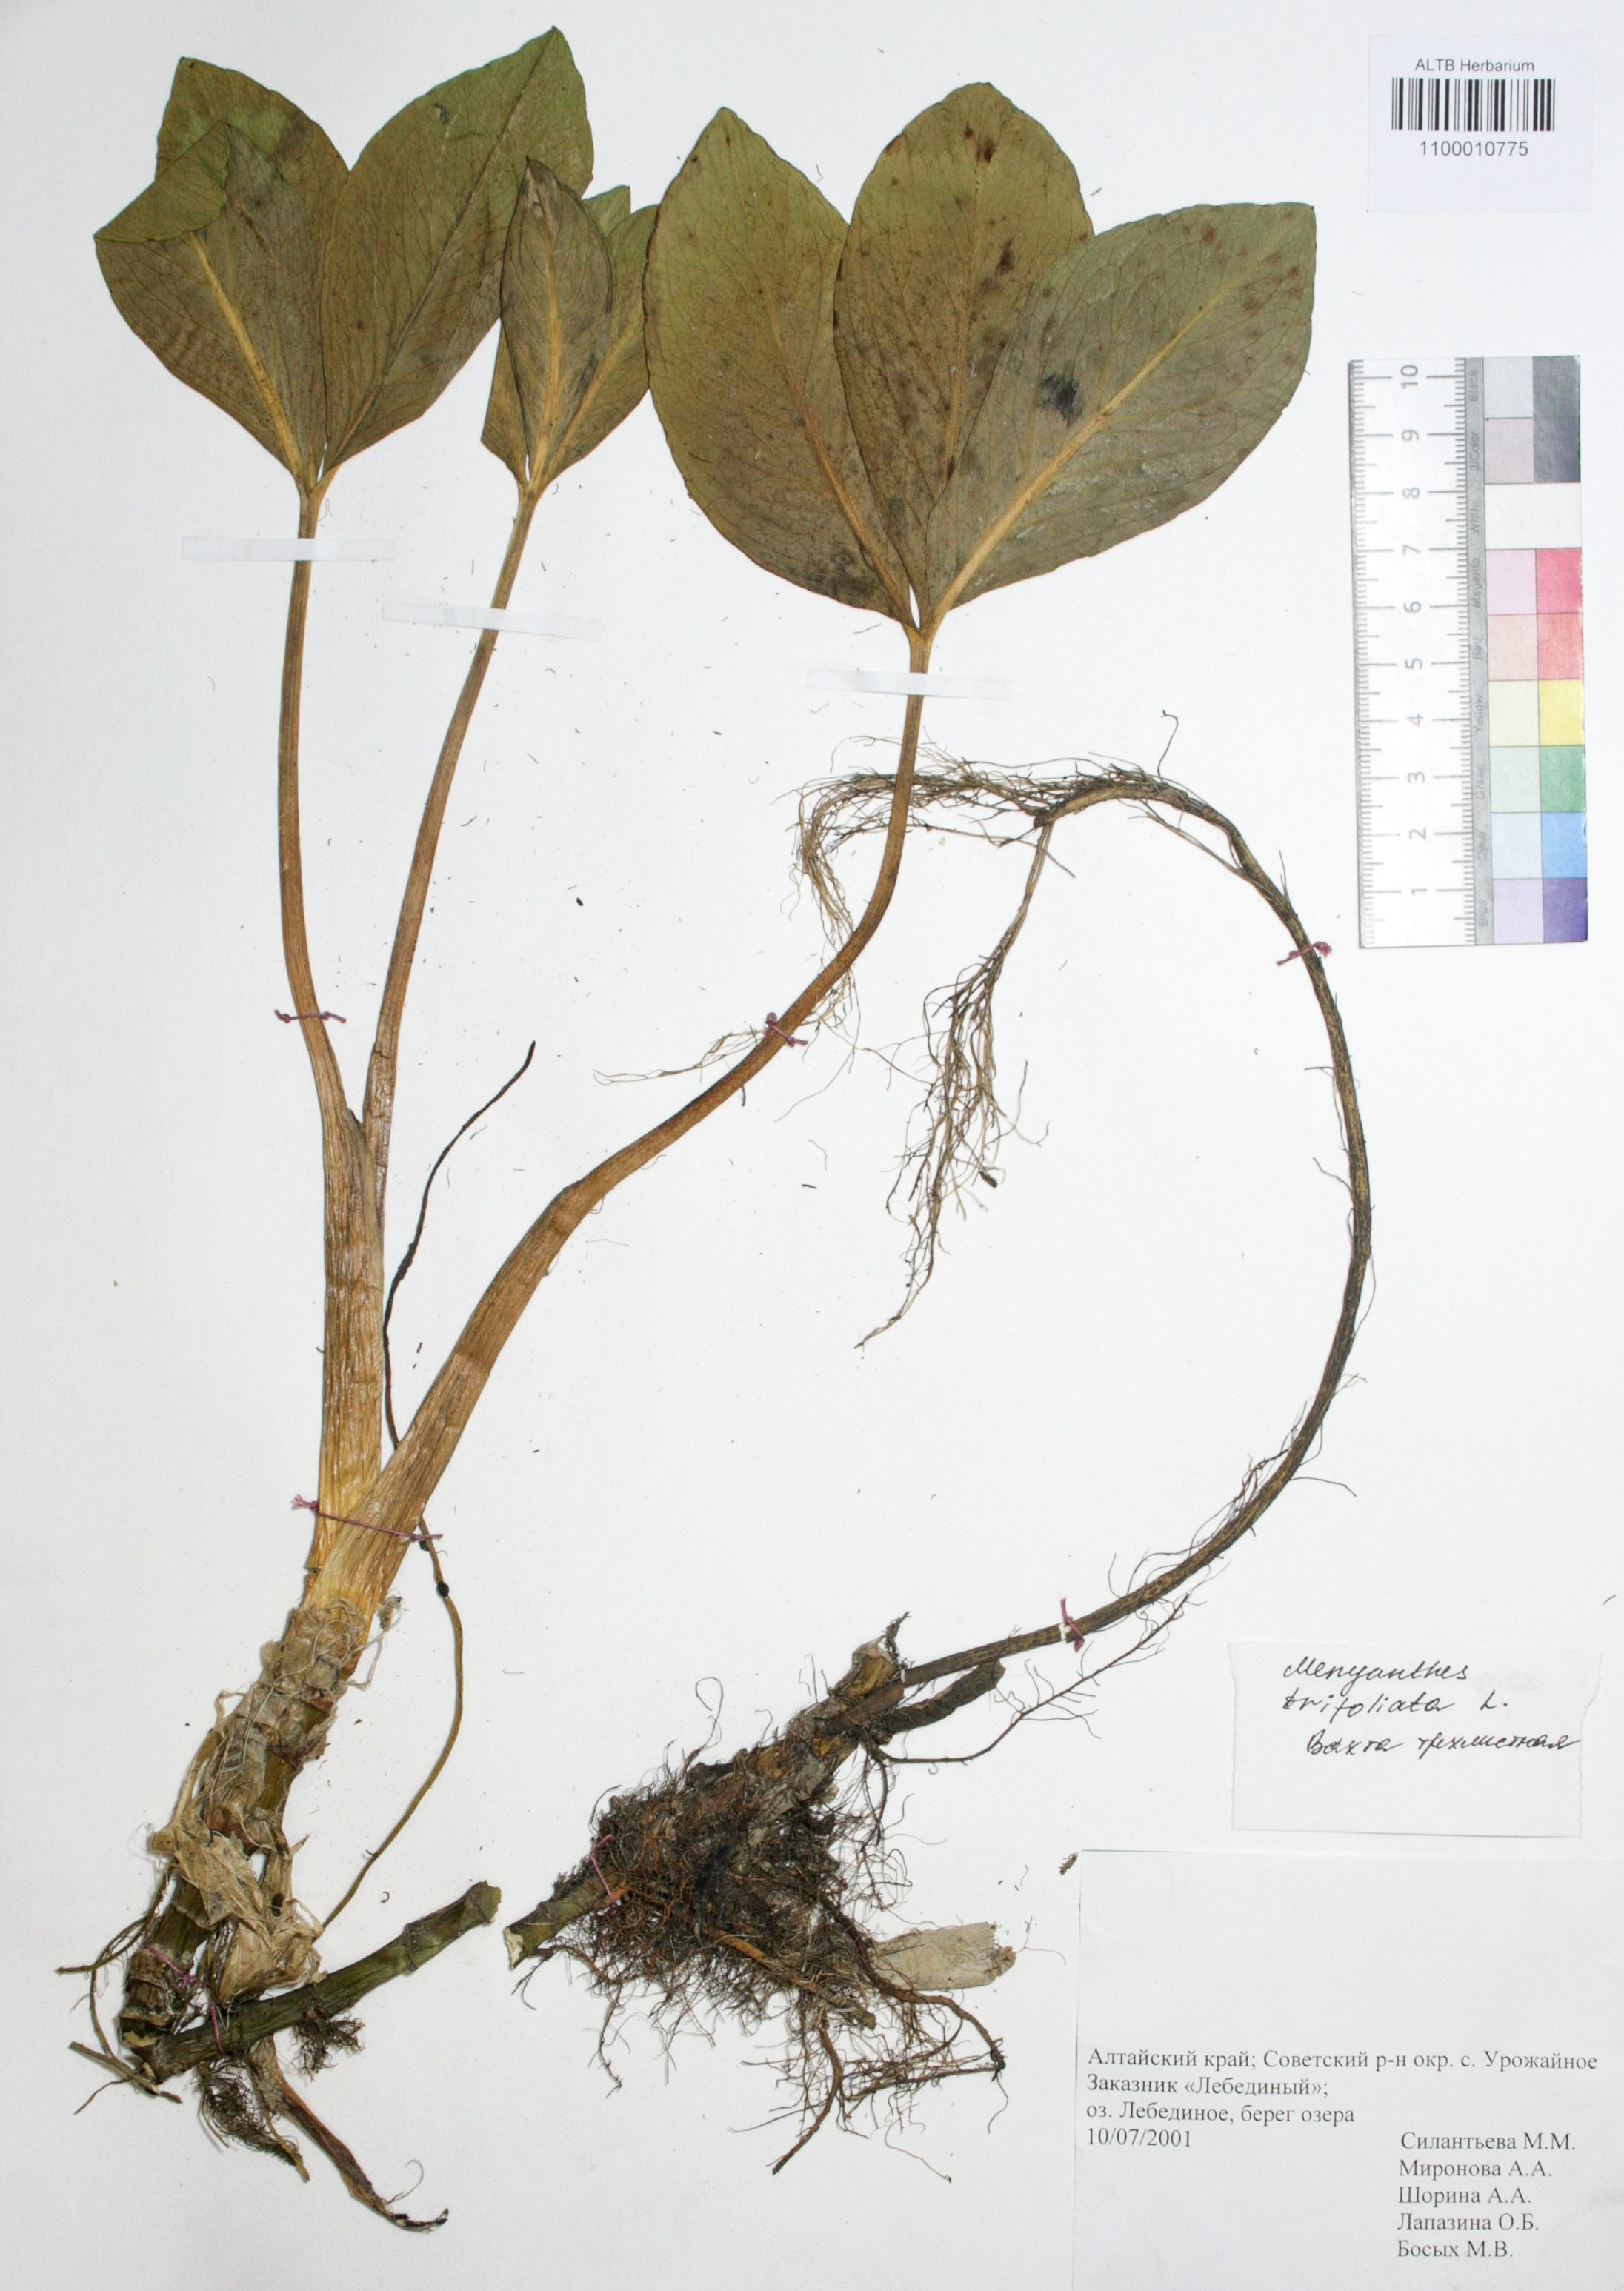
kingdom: Plantae
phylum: Tracheophyta
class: Magnoliopsida
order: Asterales
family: Menyanthaceae
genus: Menyanthes
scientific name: Menyanthes trifoliata
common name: Bogbean
